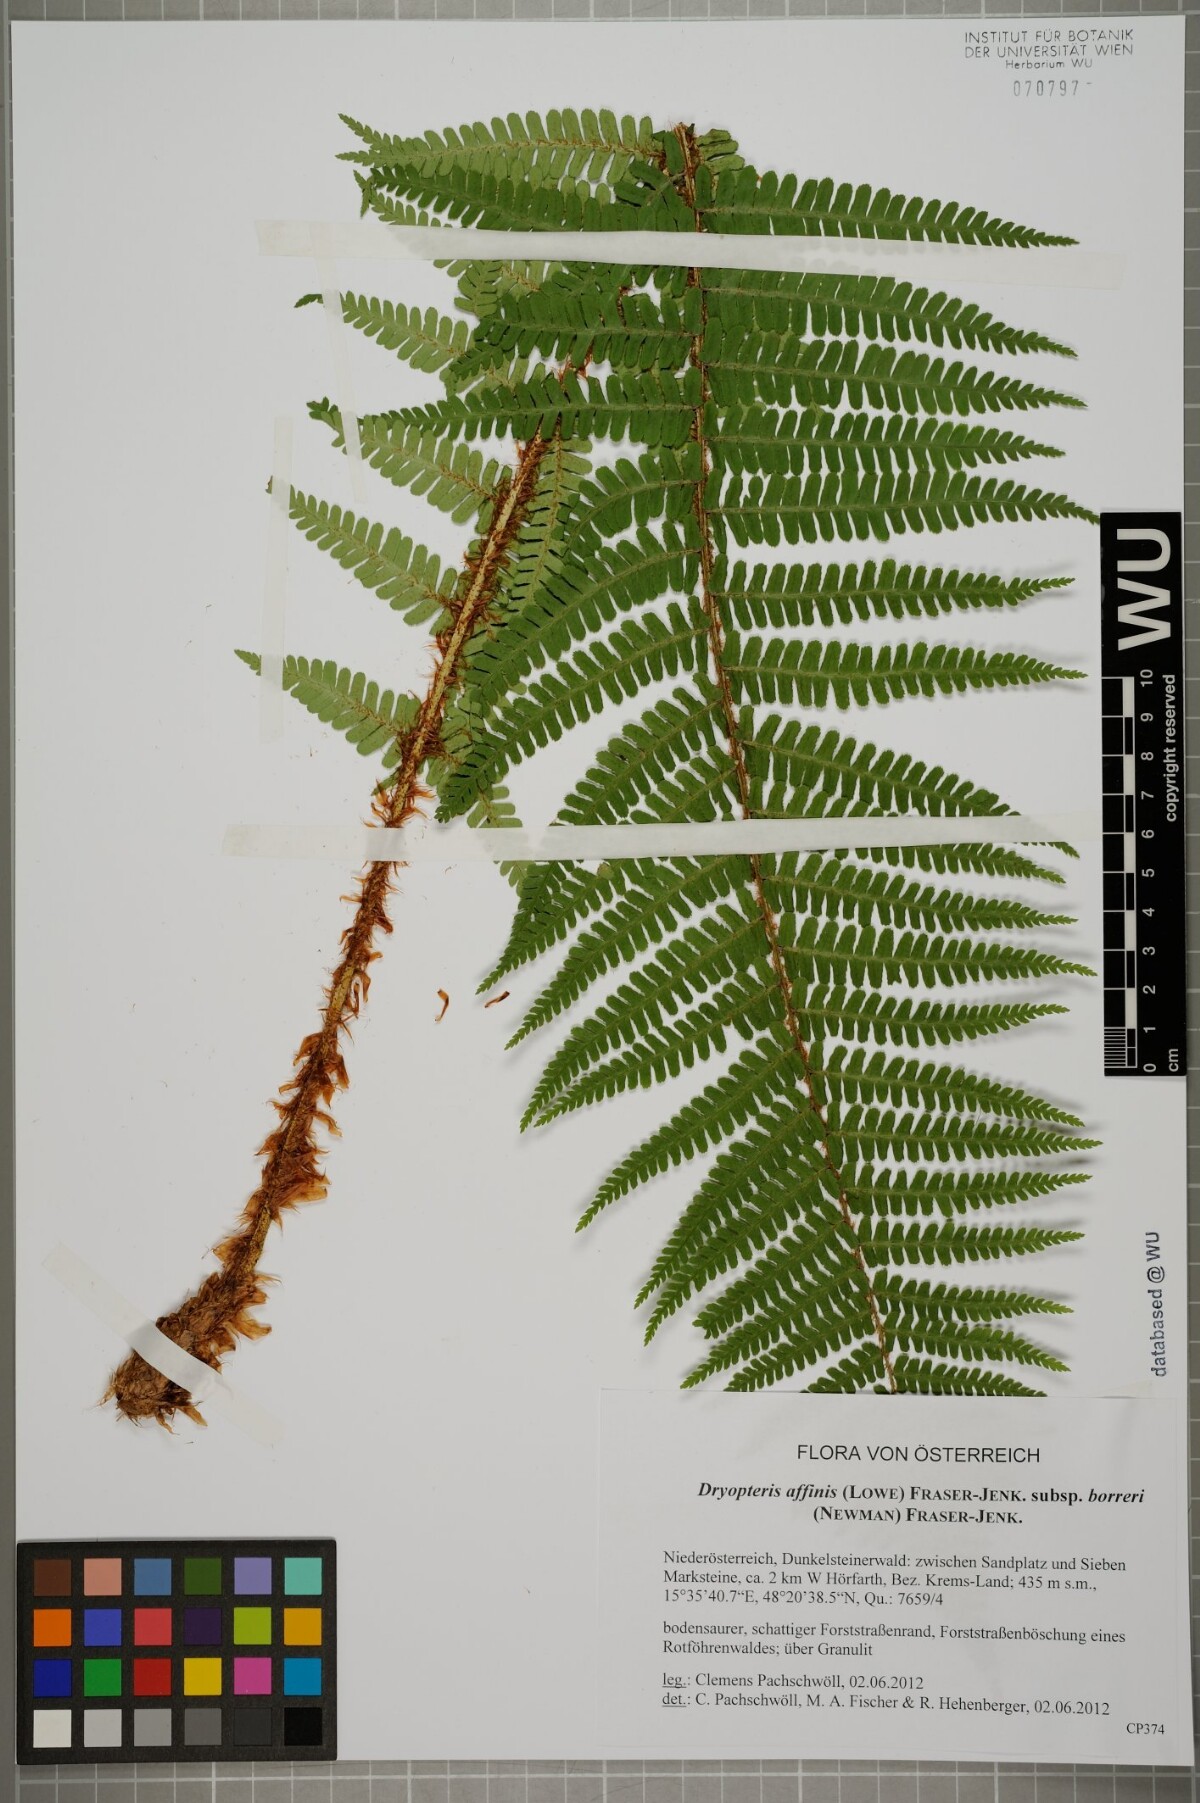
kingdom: Plantae
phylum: Tracheophyta
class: Polypodiopsida
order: Polypodiales
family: Dryopteridaceae
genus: Dryopteris
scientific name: Dryopteris borreri
